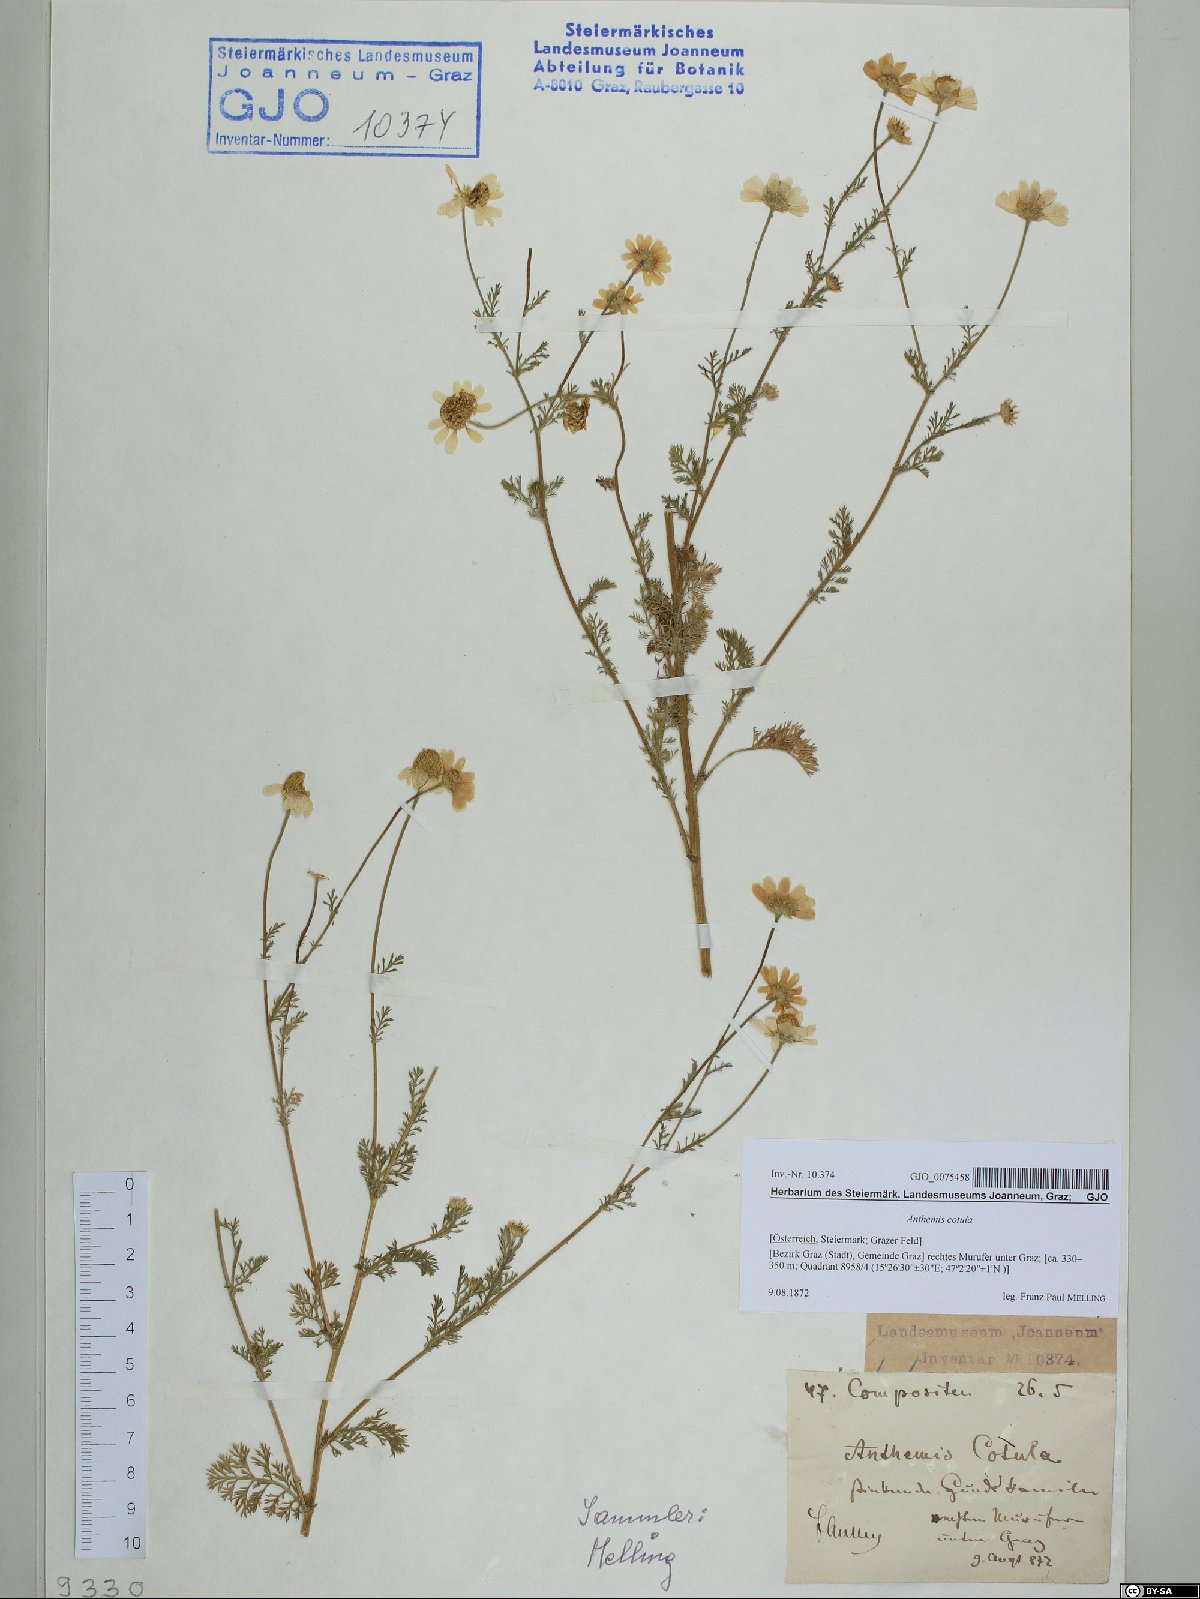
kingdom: Plantae
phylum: Tracheophyta
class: Magnoliopsida
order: Asterales
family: Asteraceae
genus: Anthemis
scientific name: Anthemis cotula
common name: Stinking chamomile
